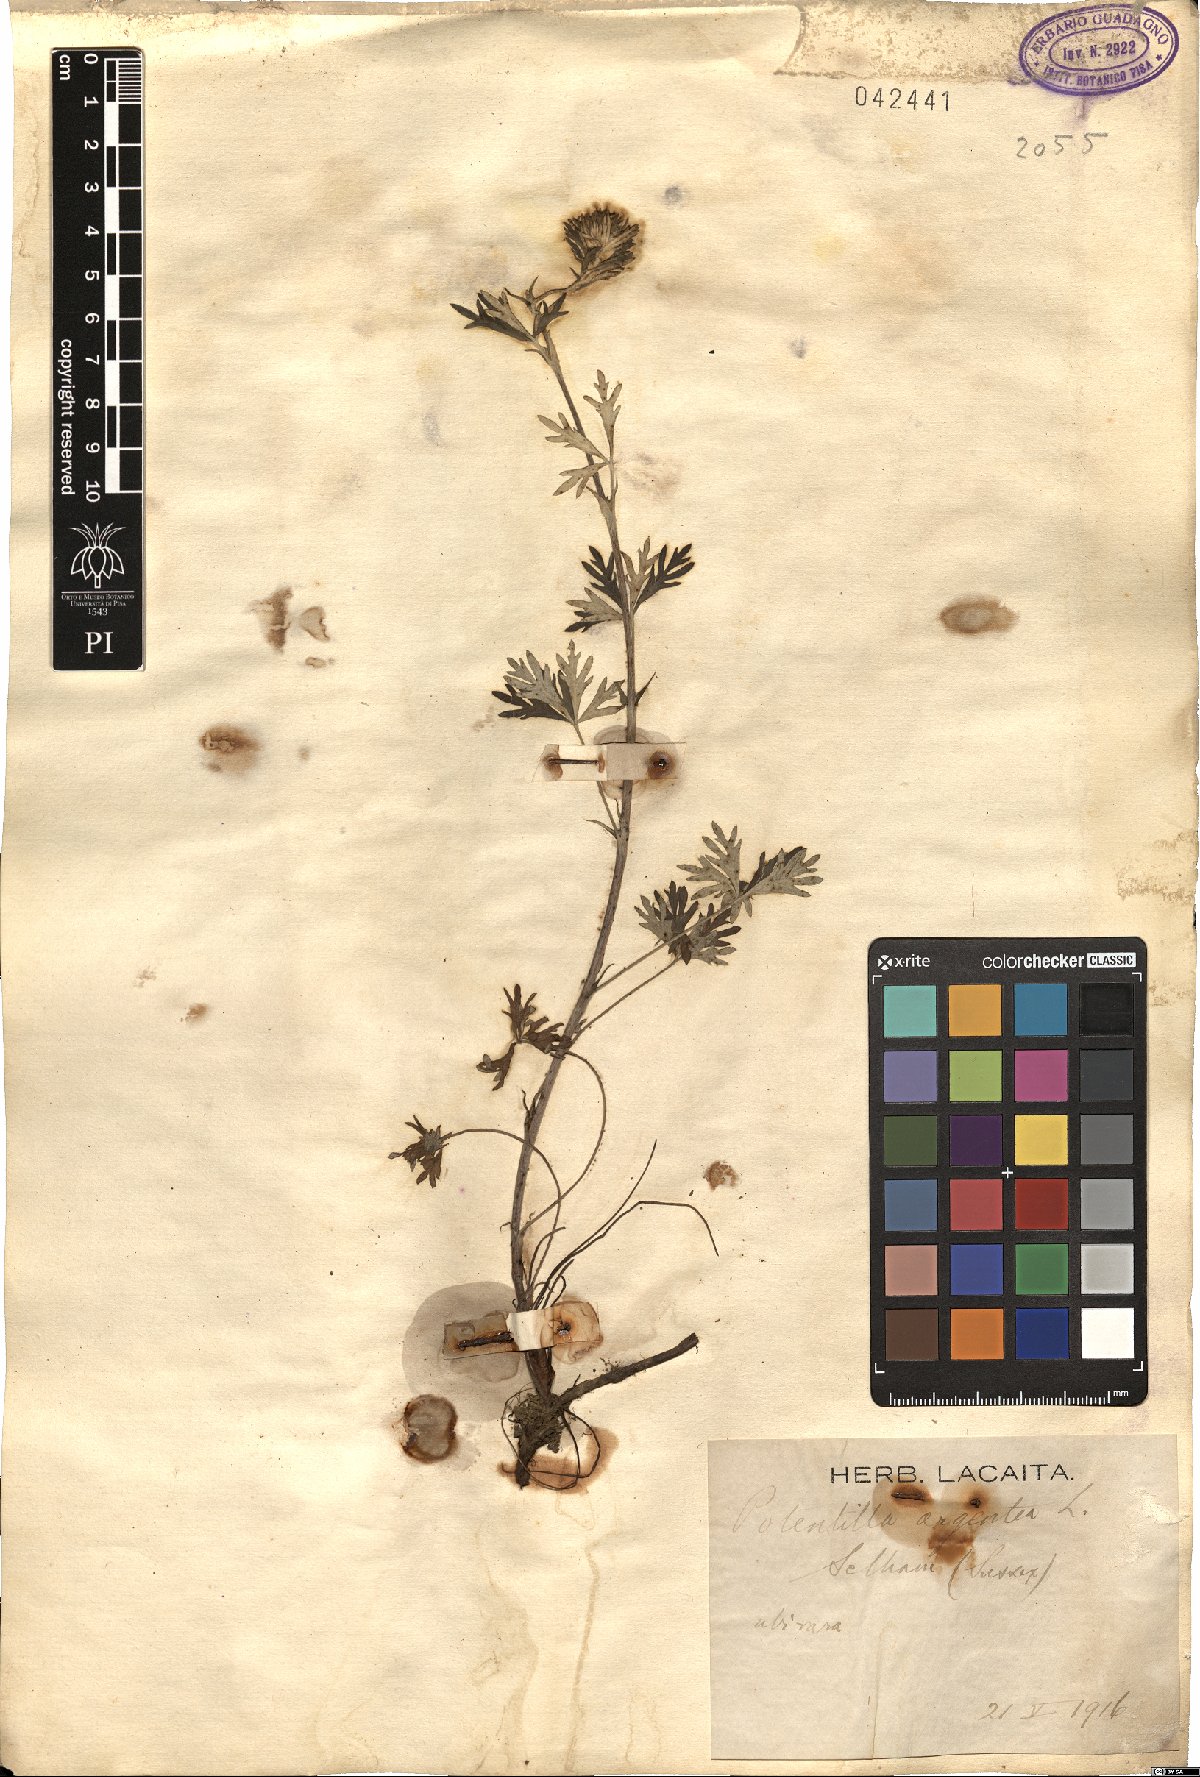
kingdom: Plantae
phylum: Tracheophyta
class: Magnoliopsida
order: Rosales
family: Rosaceae
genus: Potentilla
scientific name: Potentilla argentea
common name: Hoary cinquefoil
